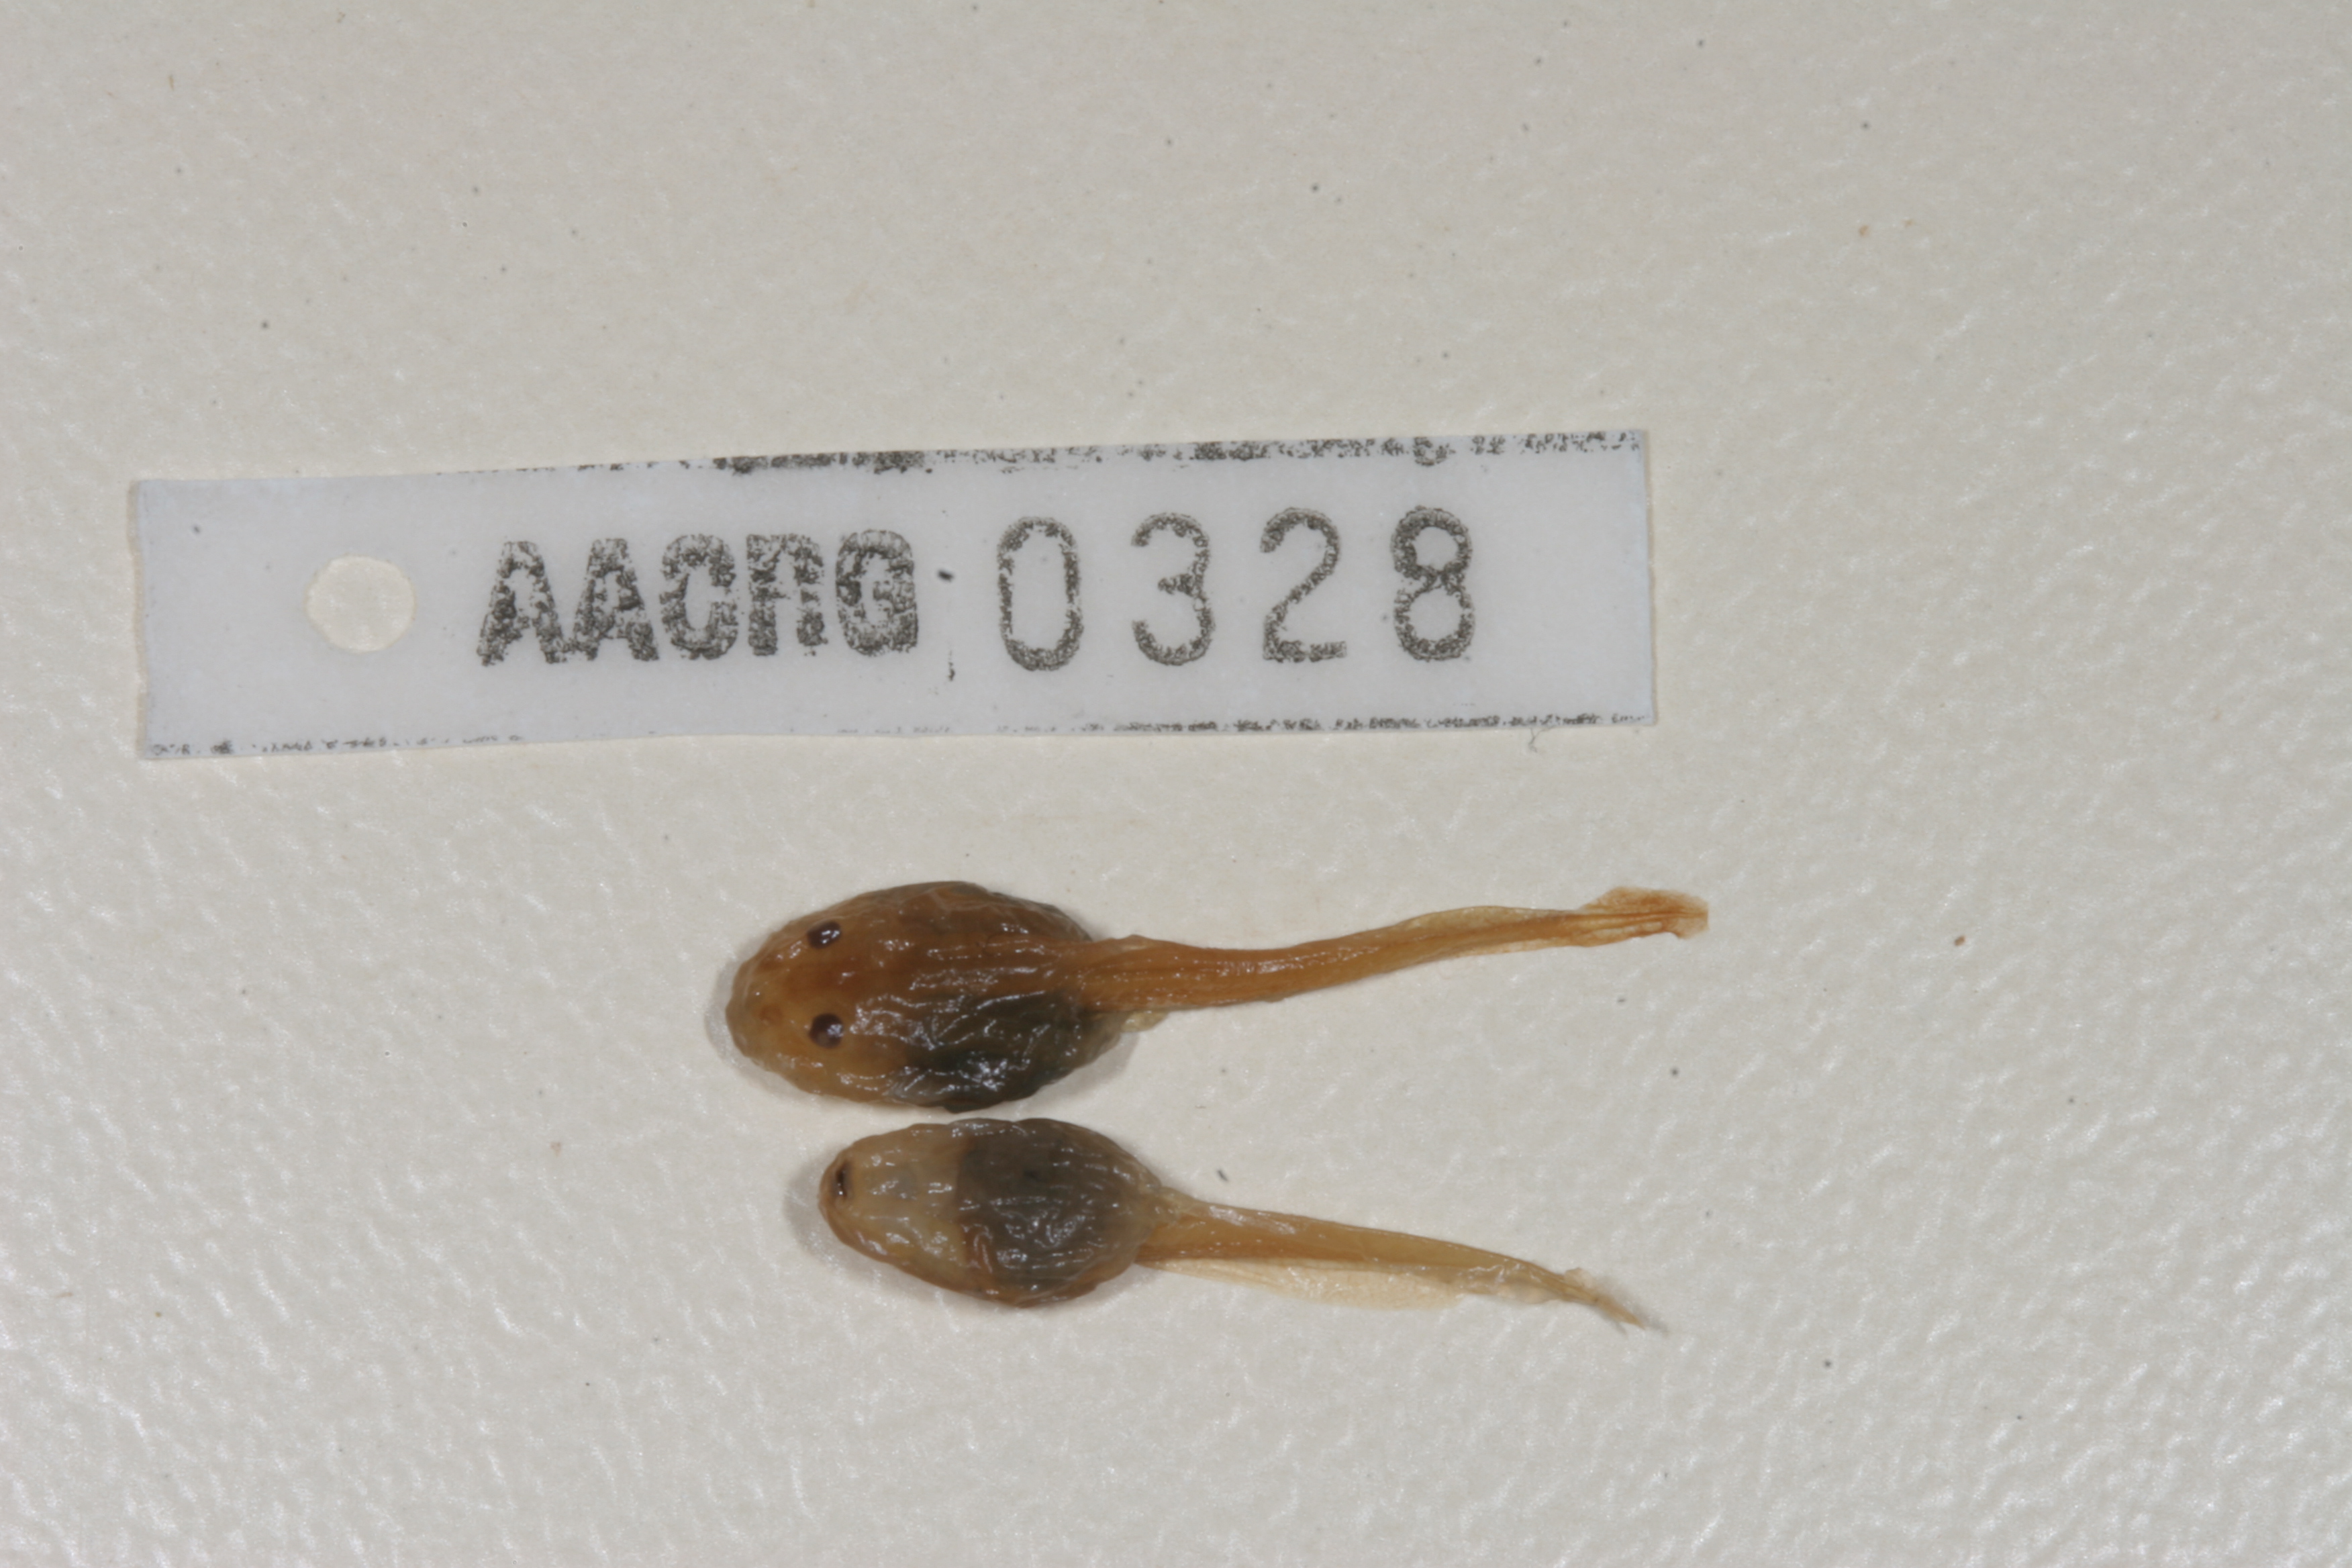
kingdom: Animalia
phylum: Chordata
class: Amphibia
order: Anura
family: Pyxicephalidae
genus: Strongylopus
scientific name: Strongylopus grayii
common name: Gray's stream frog
